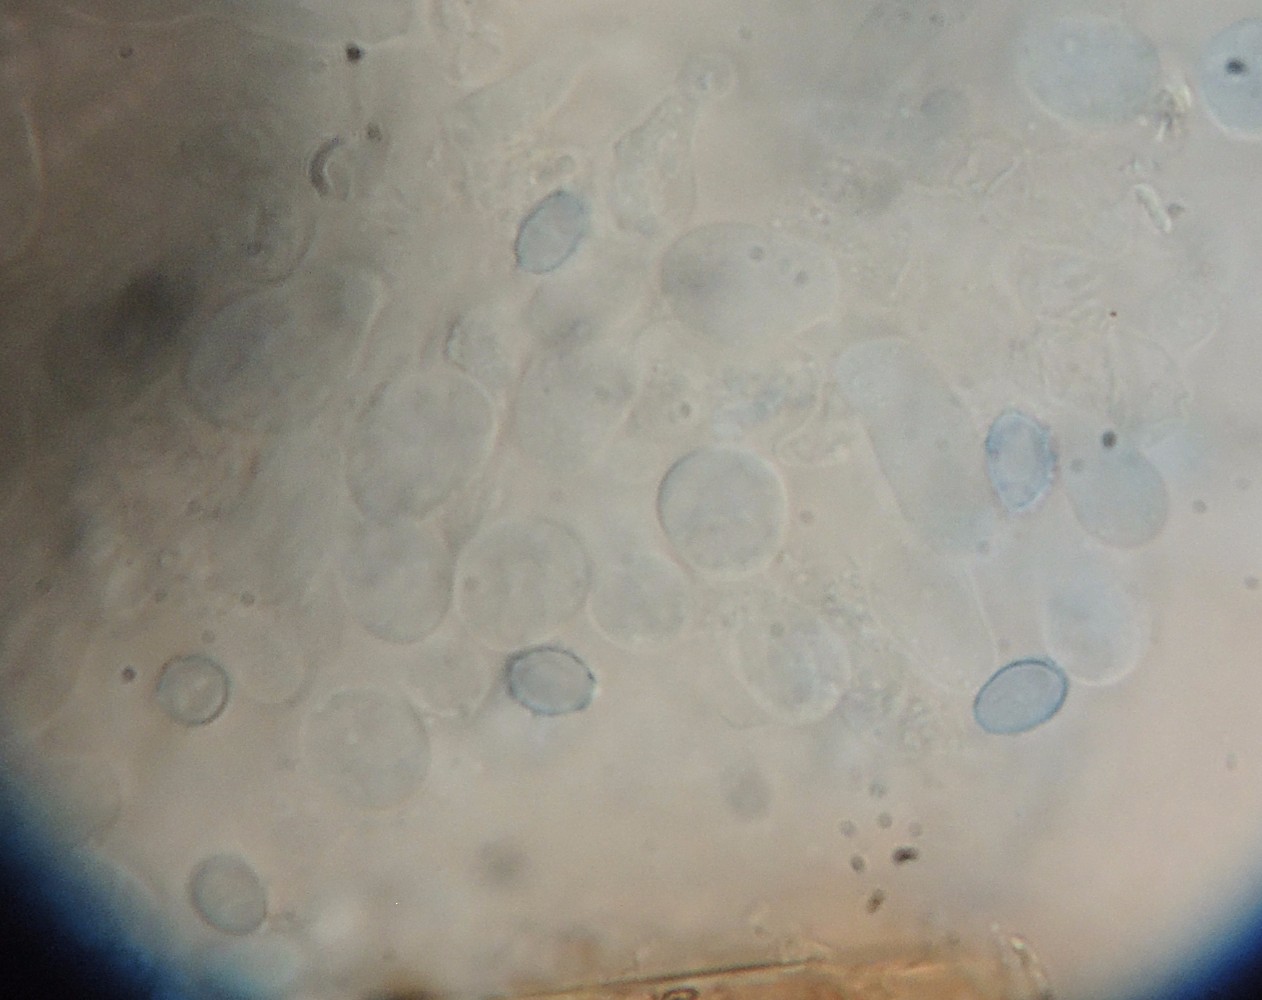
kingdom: Fungi
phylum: Basidiomycota
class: Agaricomycetes
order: Agaricales
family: Stephanosporaceae
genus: Lindtneria
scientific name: Lindtneria leucobryophila
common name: bleg citrushinde
